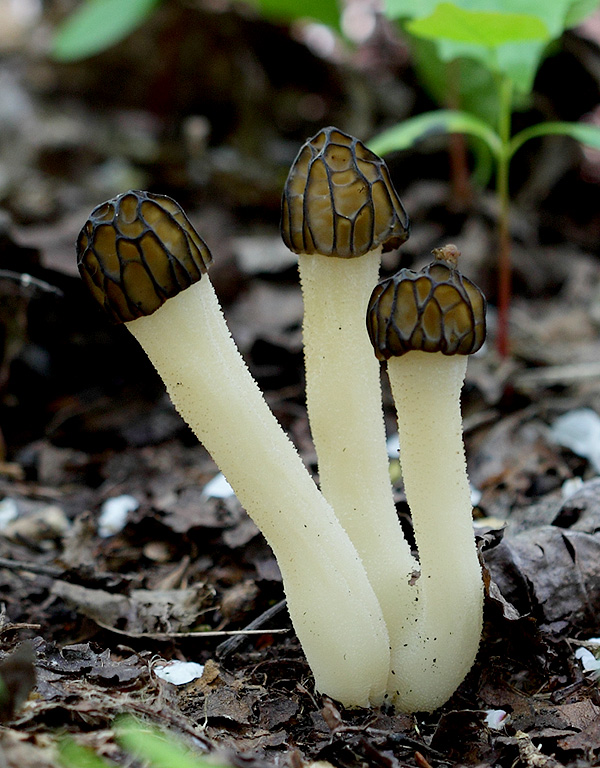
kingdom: Fungi
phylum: Ascomycota
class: Pezizomycetes
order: Pezizales
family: Morchellaceae
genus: Morchella
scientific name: Morchella semilibera
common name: hætte-morkel
